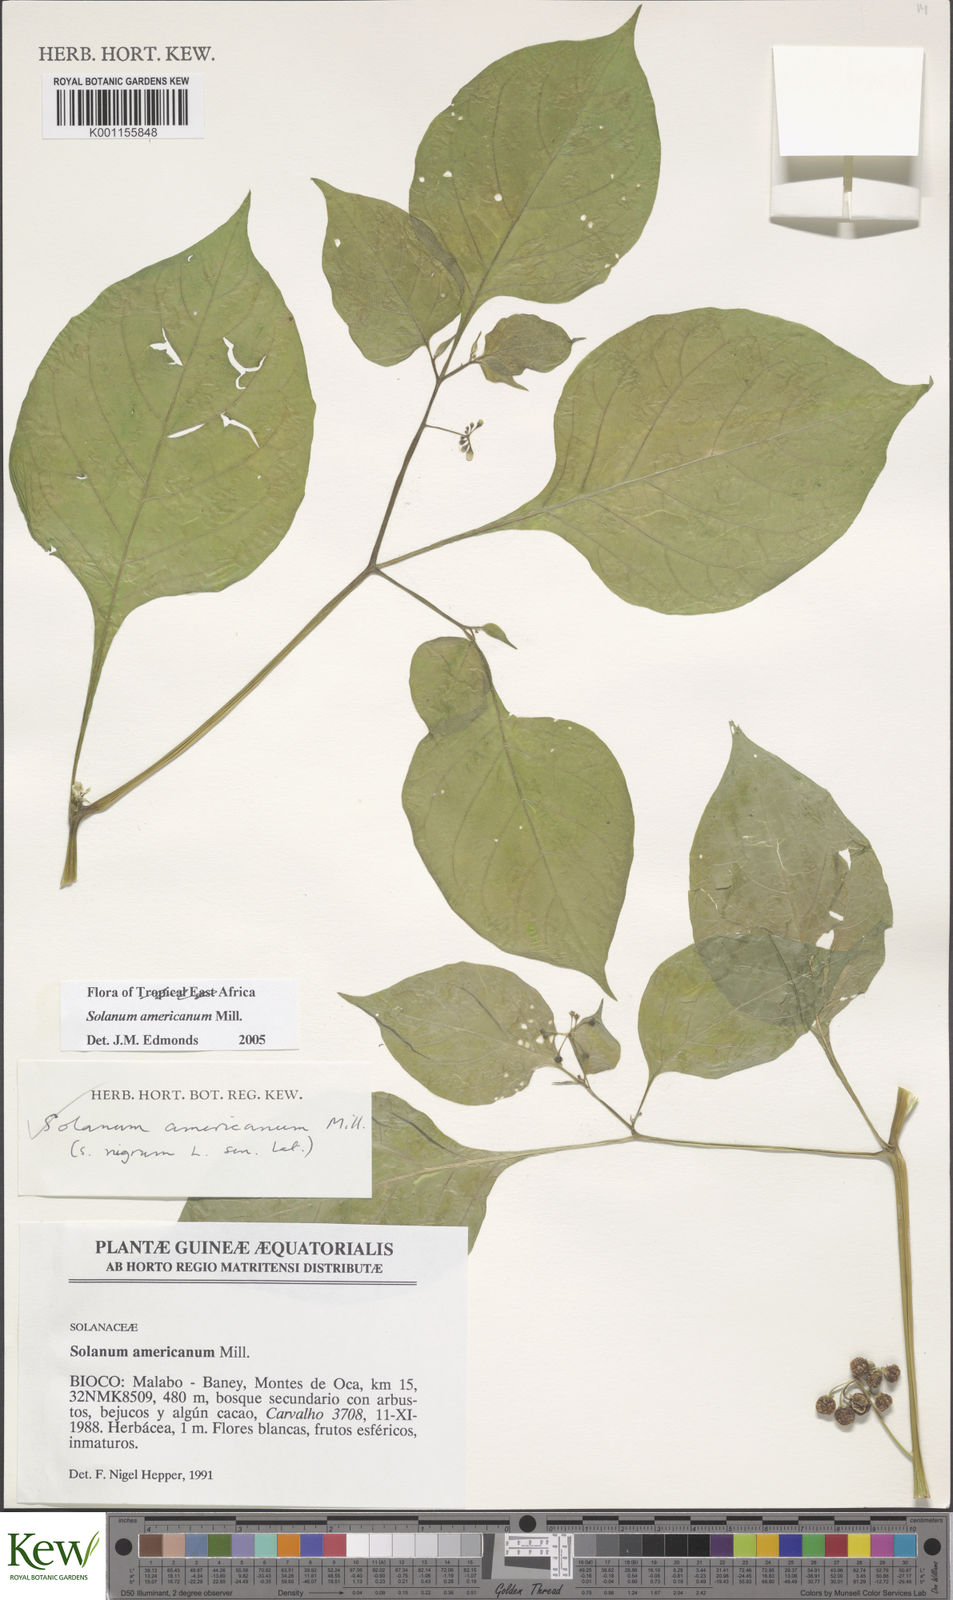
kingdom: Plantae
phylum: Tracheophyta
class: Magnoliopsida
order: Solanales
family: Solanaceae
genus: Solanum
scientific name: Solanum scabrum
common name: Garden-huckleberry
